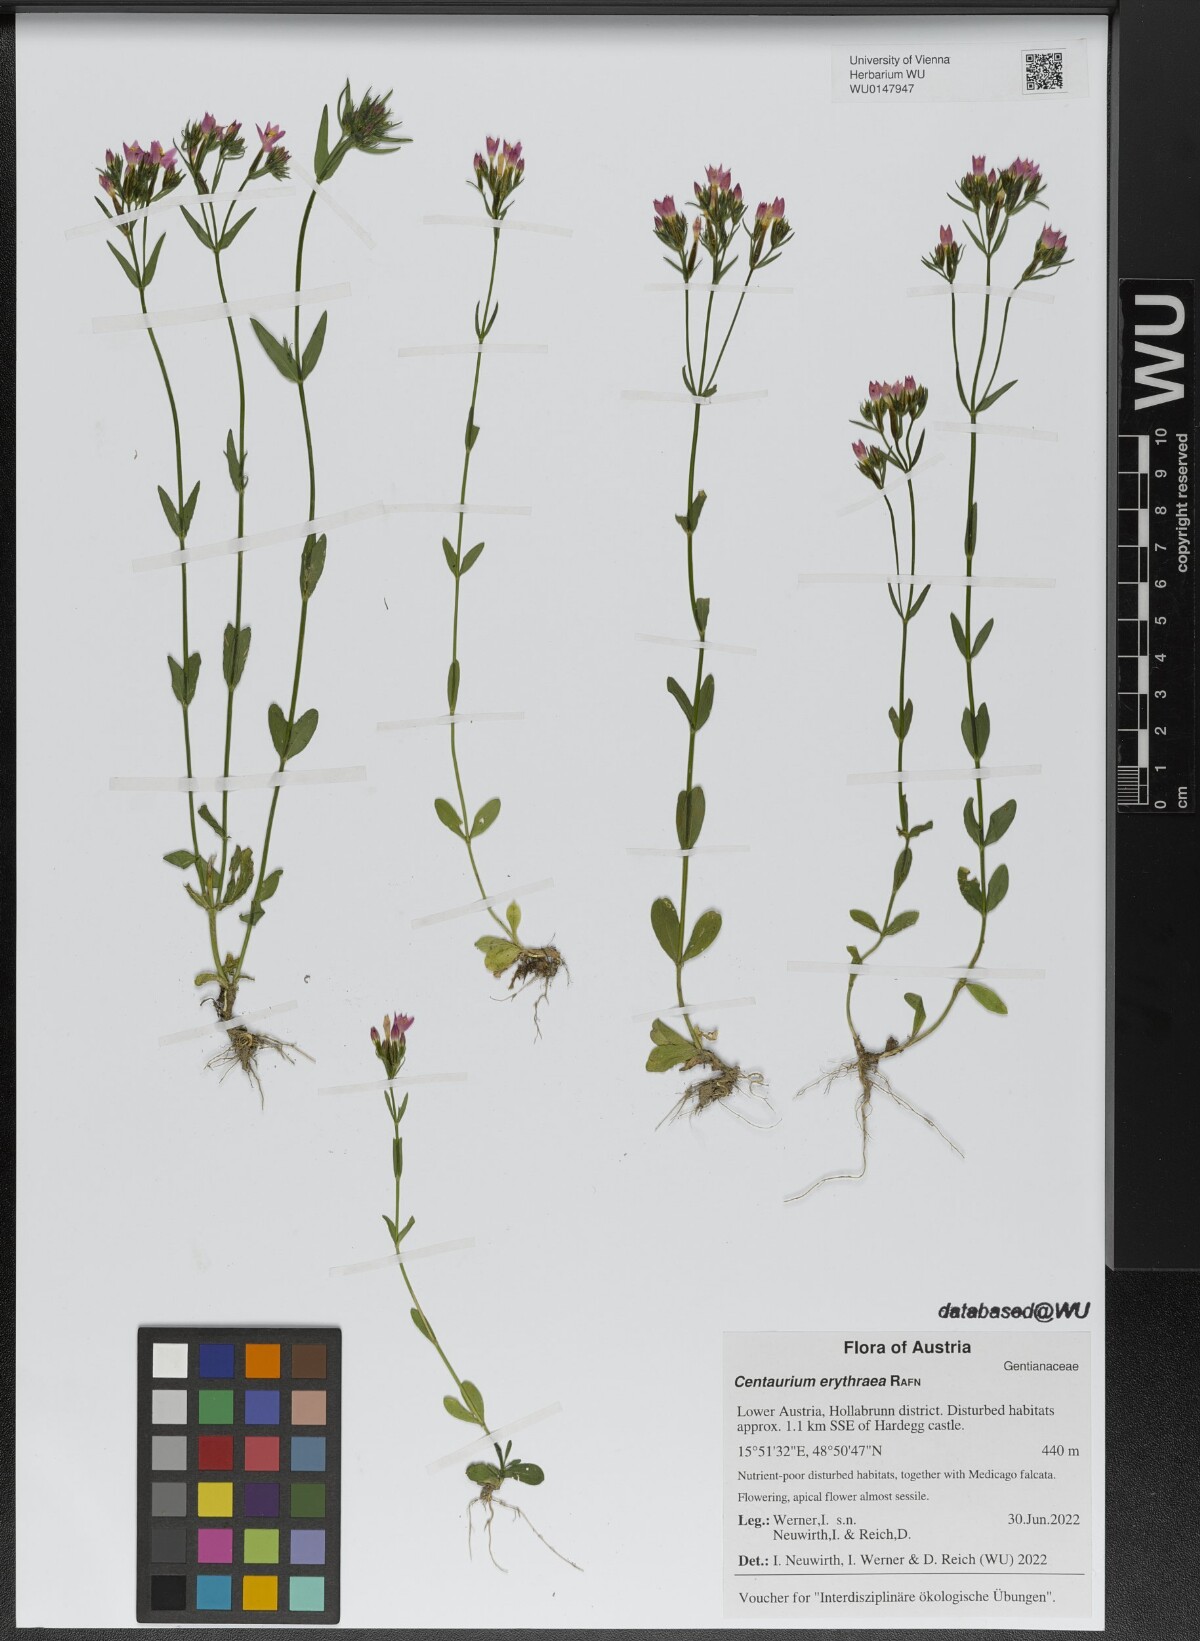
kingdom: Plantae
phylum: Tracheophyta
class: Magnoliopsida
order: Gentianales
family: Gentianaceae
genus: Centaurium
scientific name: Centaurium erythraea
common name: Common centaury
